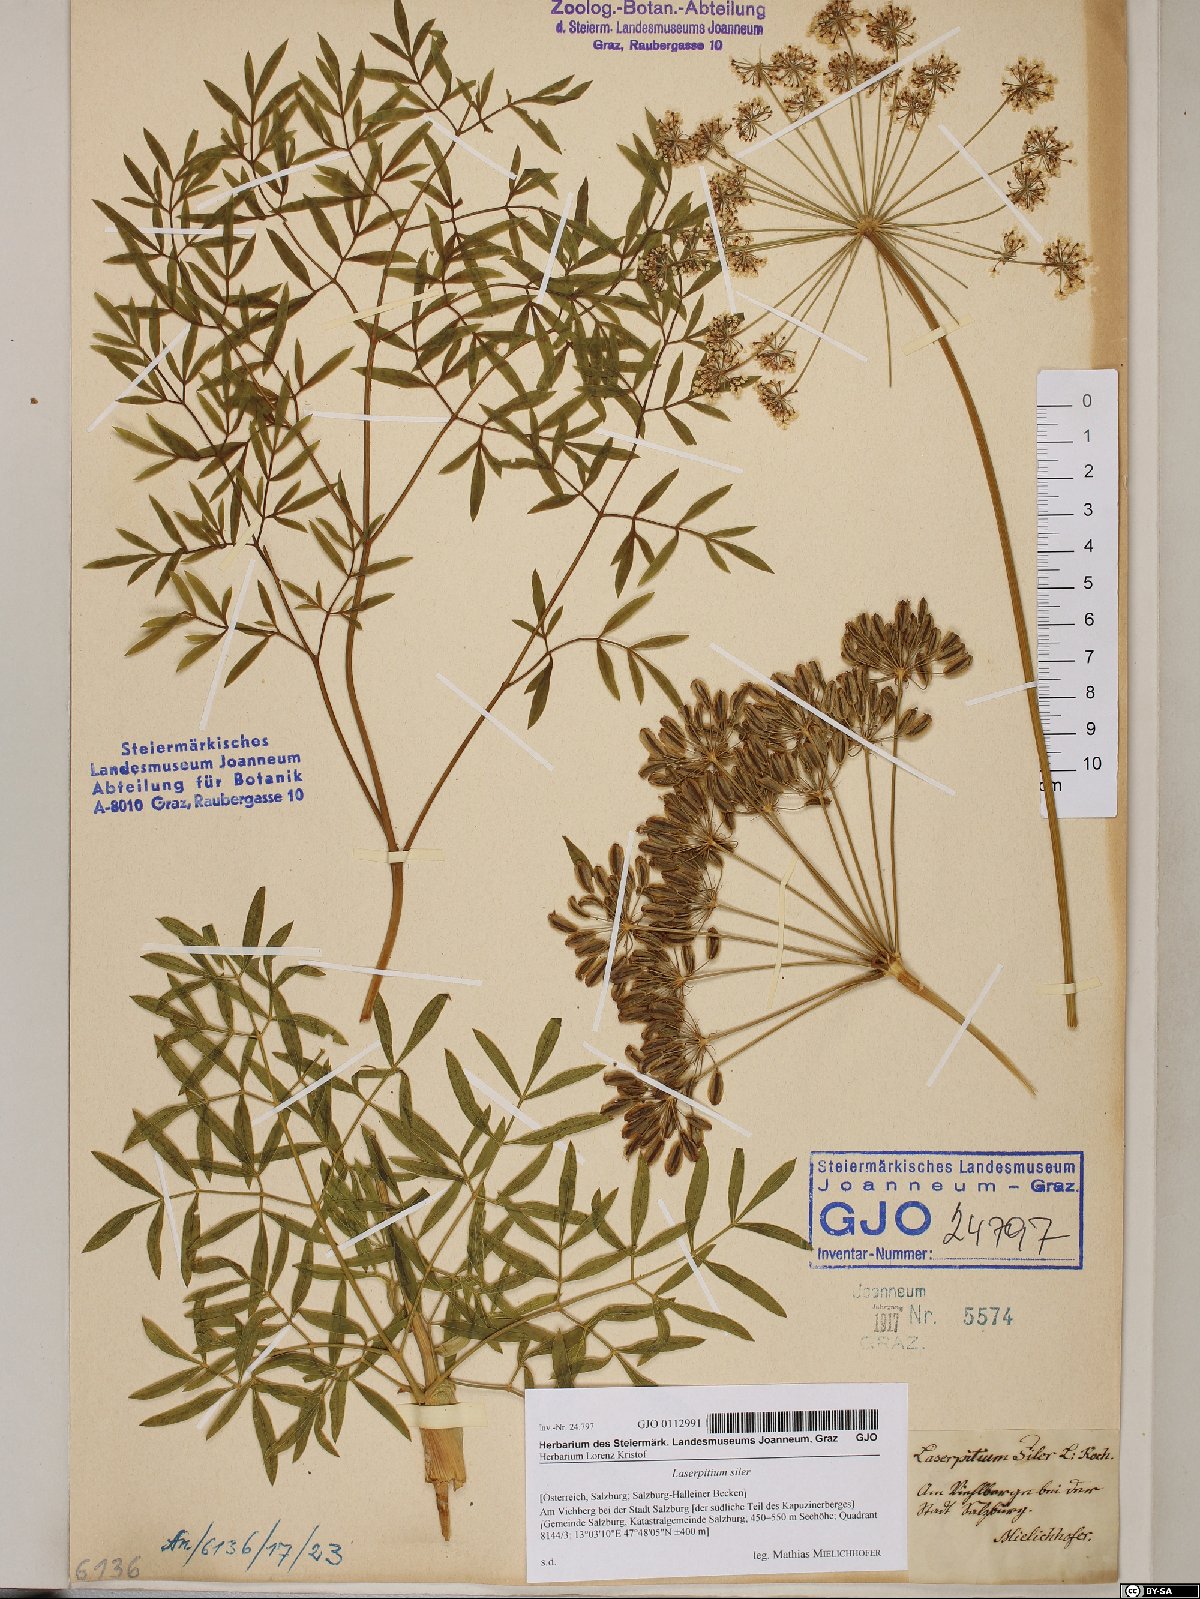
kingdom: Plantae
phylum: Tracheophyta
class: Magnoliopsida
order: Apiales
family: Apiaceae
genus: Siler
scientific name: Siler montanum
